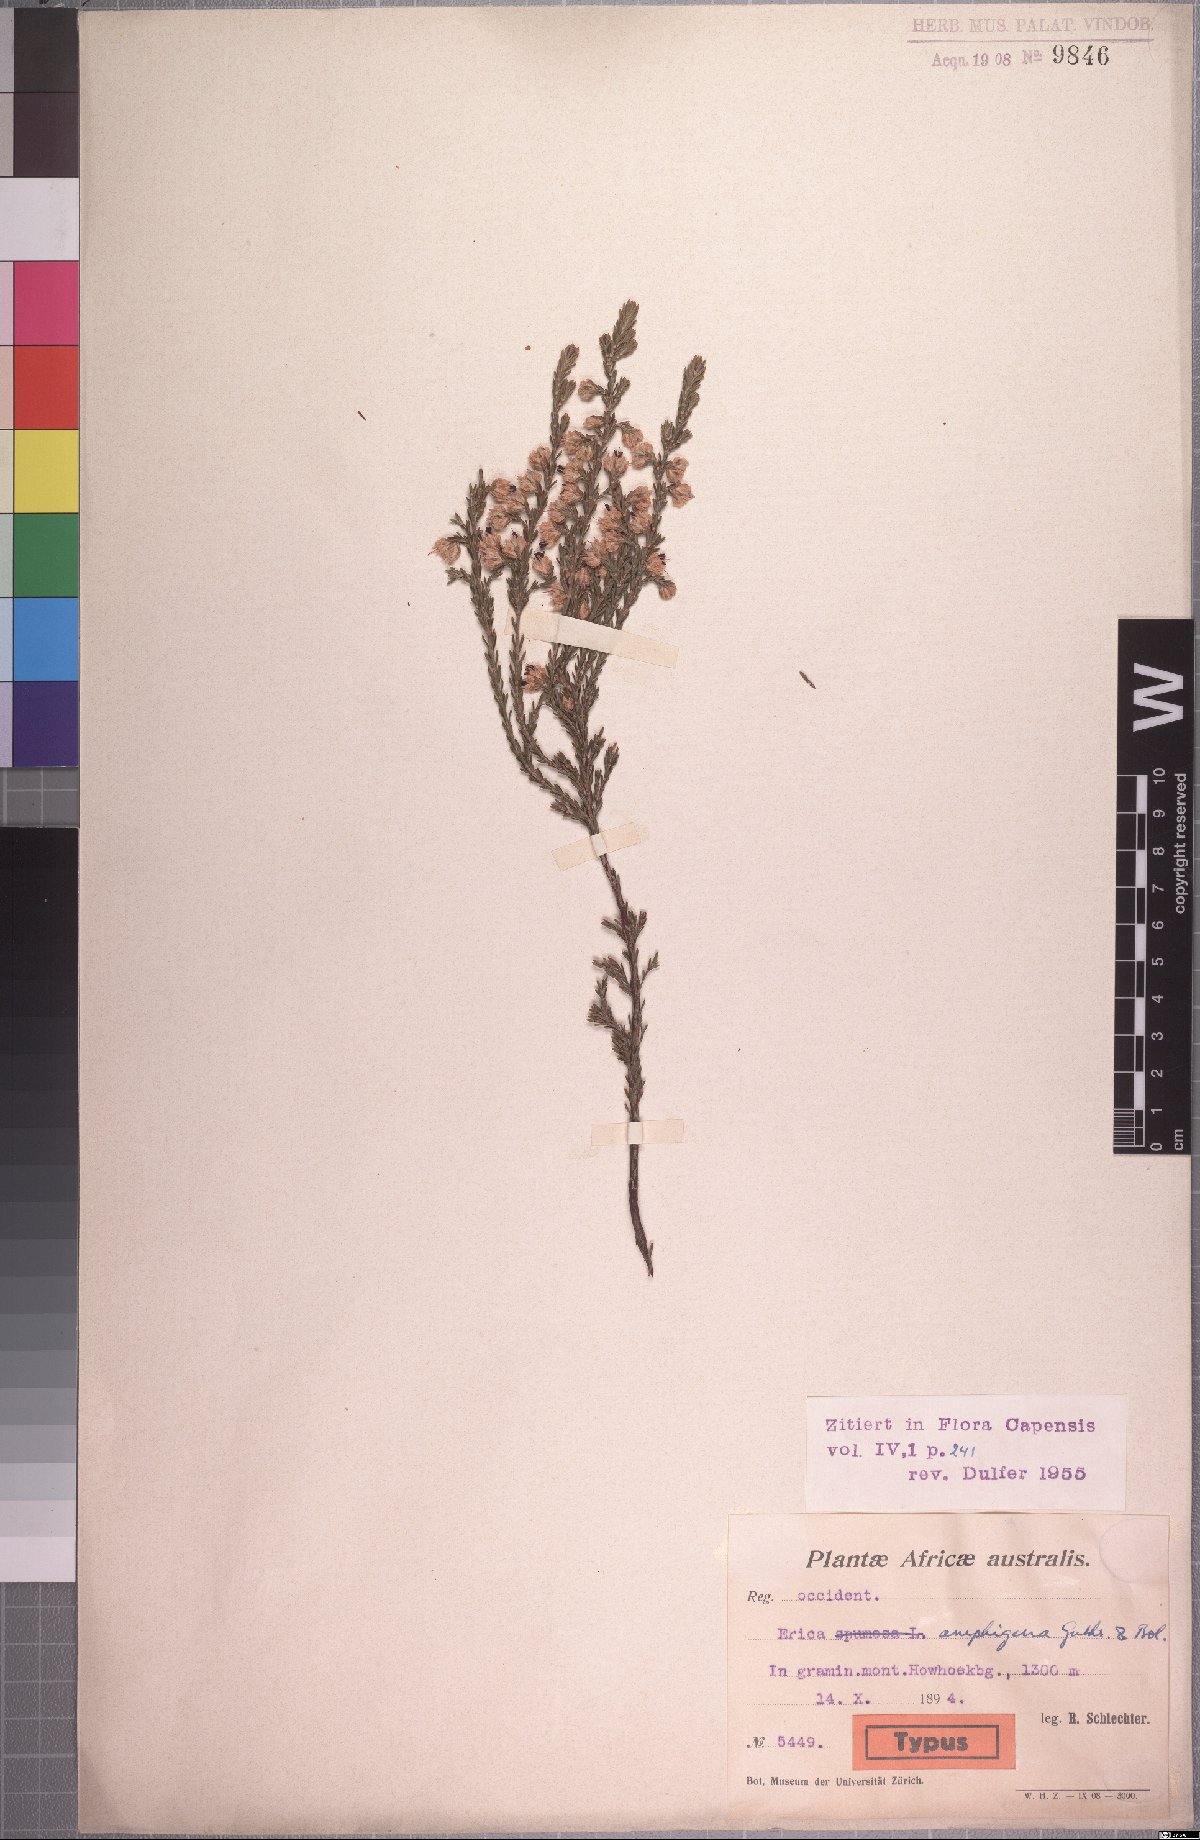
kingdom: Plantae
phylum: Tracheophyta
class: Magnoliopsida
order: Ericales
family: Ericaceae
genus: Erica
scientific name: Erica amphigena
